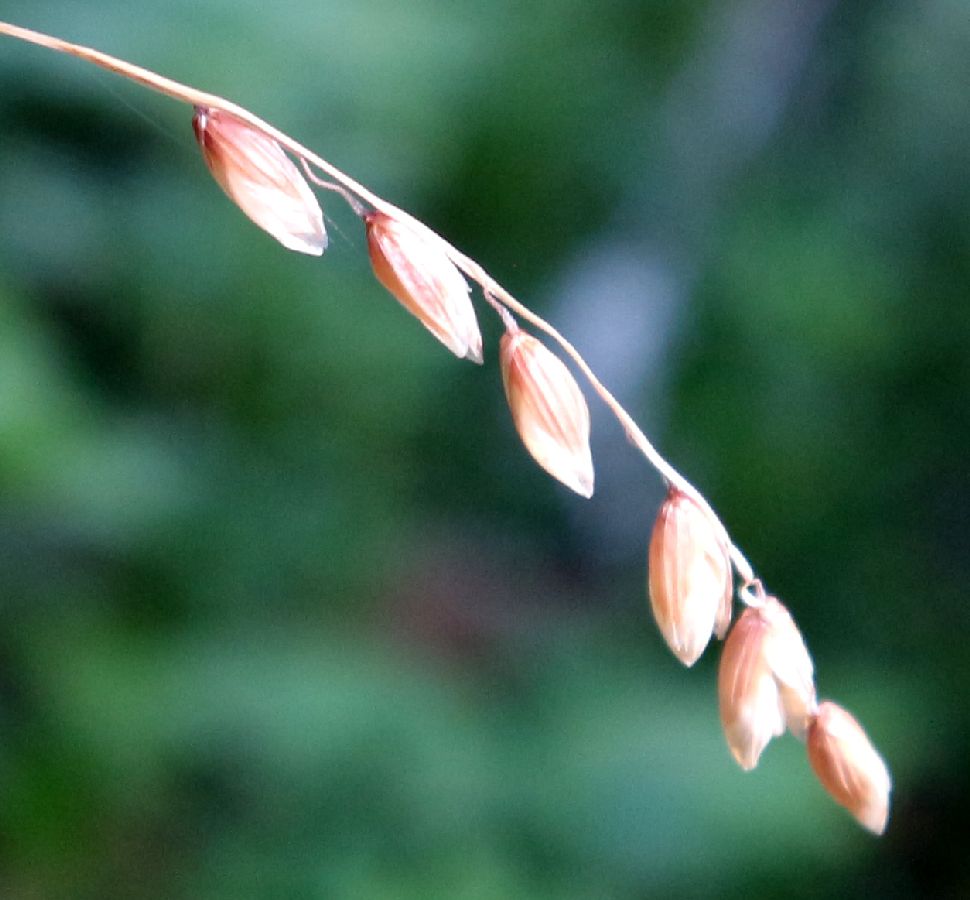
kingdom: Plantae
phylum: Tracheophyta
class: Liliopsida
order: Poales
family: Poaceae
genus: Melica
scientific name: Melica nutans
